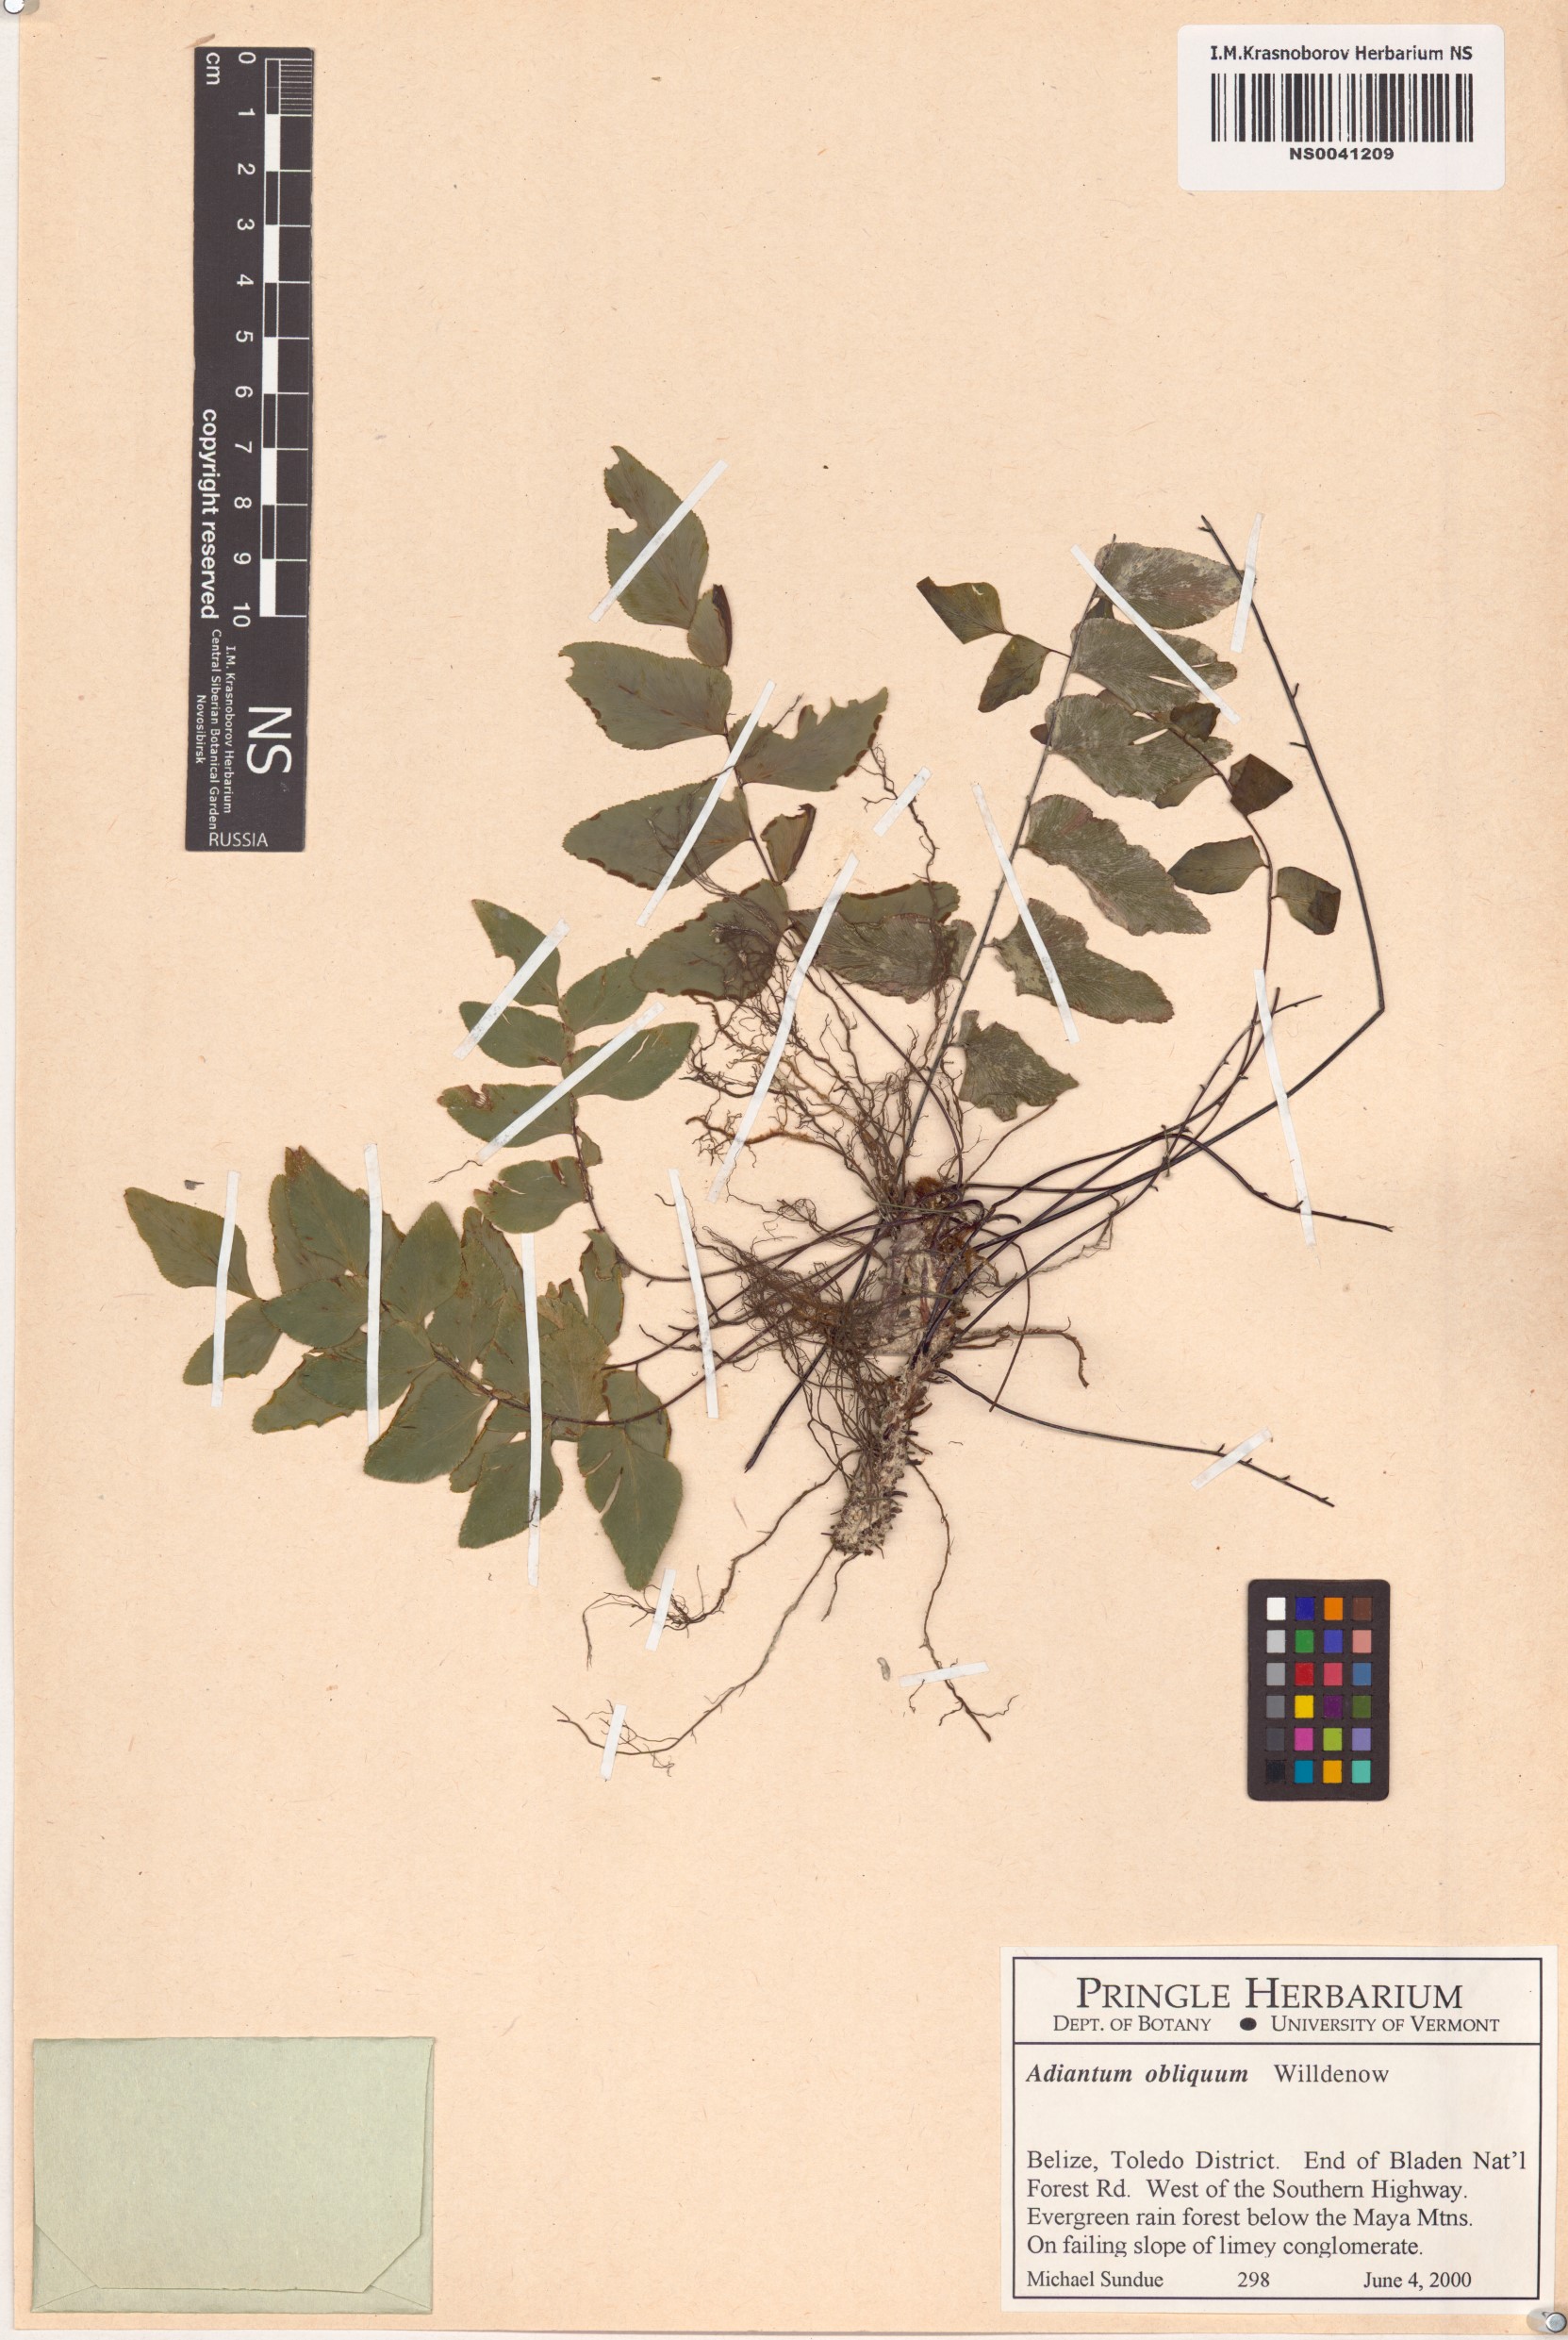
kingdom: Plantae
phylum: Tracheophyta
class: Polypodiopsida
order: Polypodiales
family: Pteridaceae
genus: Adiantum
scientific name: Adiantum obliquum
